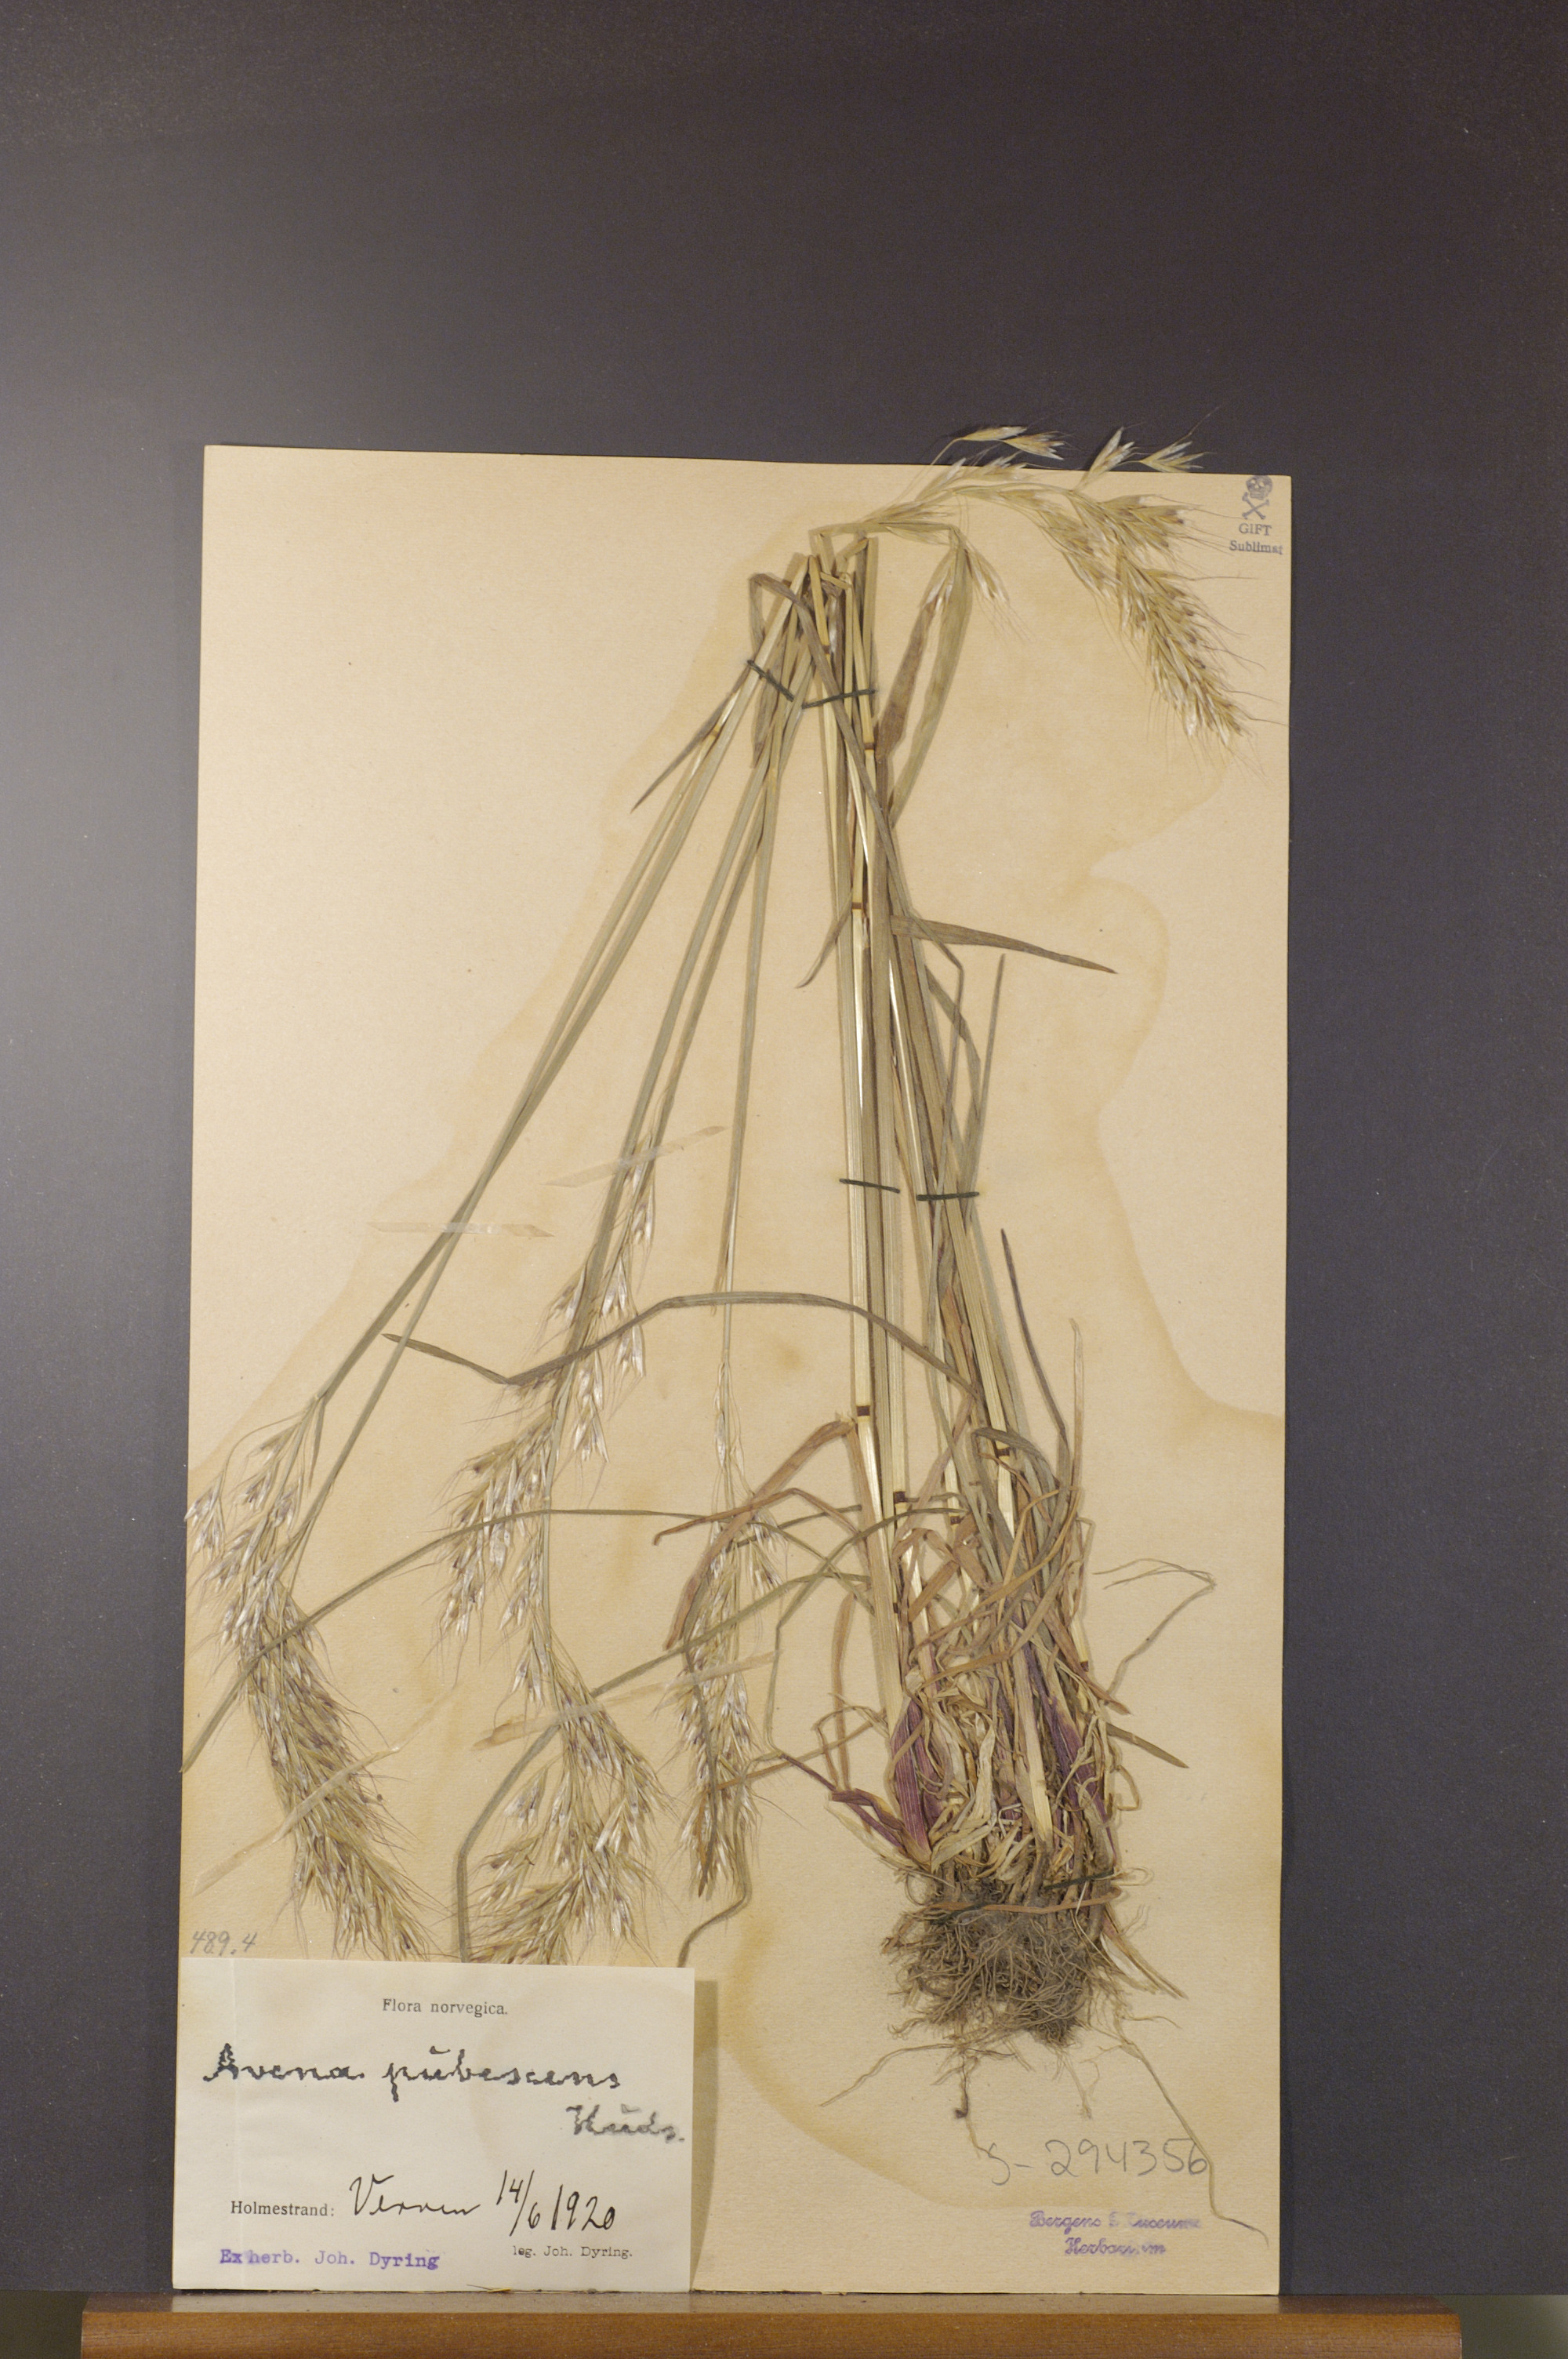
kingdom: Plantae
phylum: Tracheophyta
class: Liliopsida
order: Poales
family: Poaceae
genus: Avenula
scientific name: Avenula pubescens
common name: Downy alpine oatgrass
